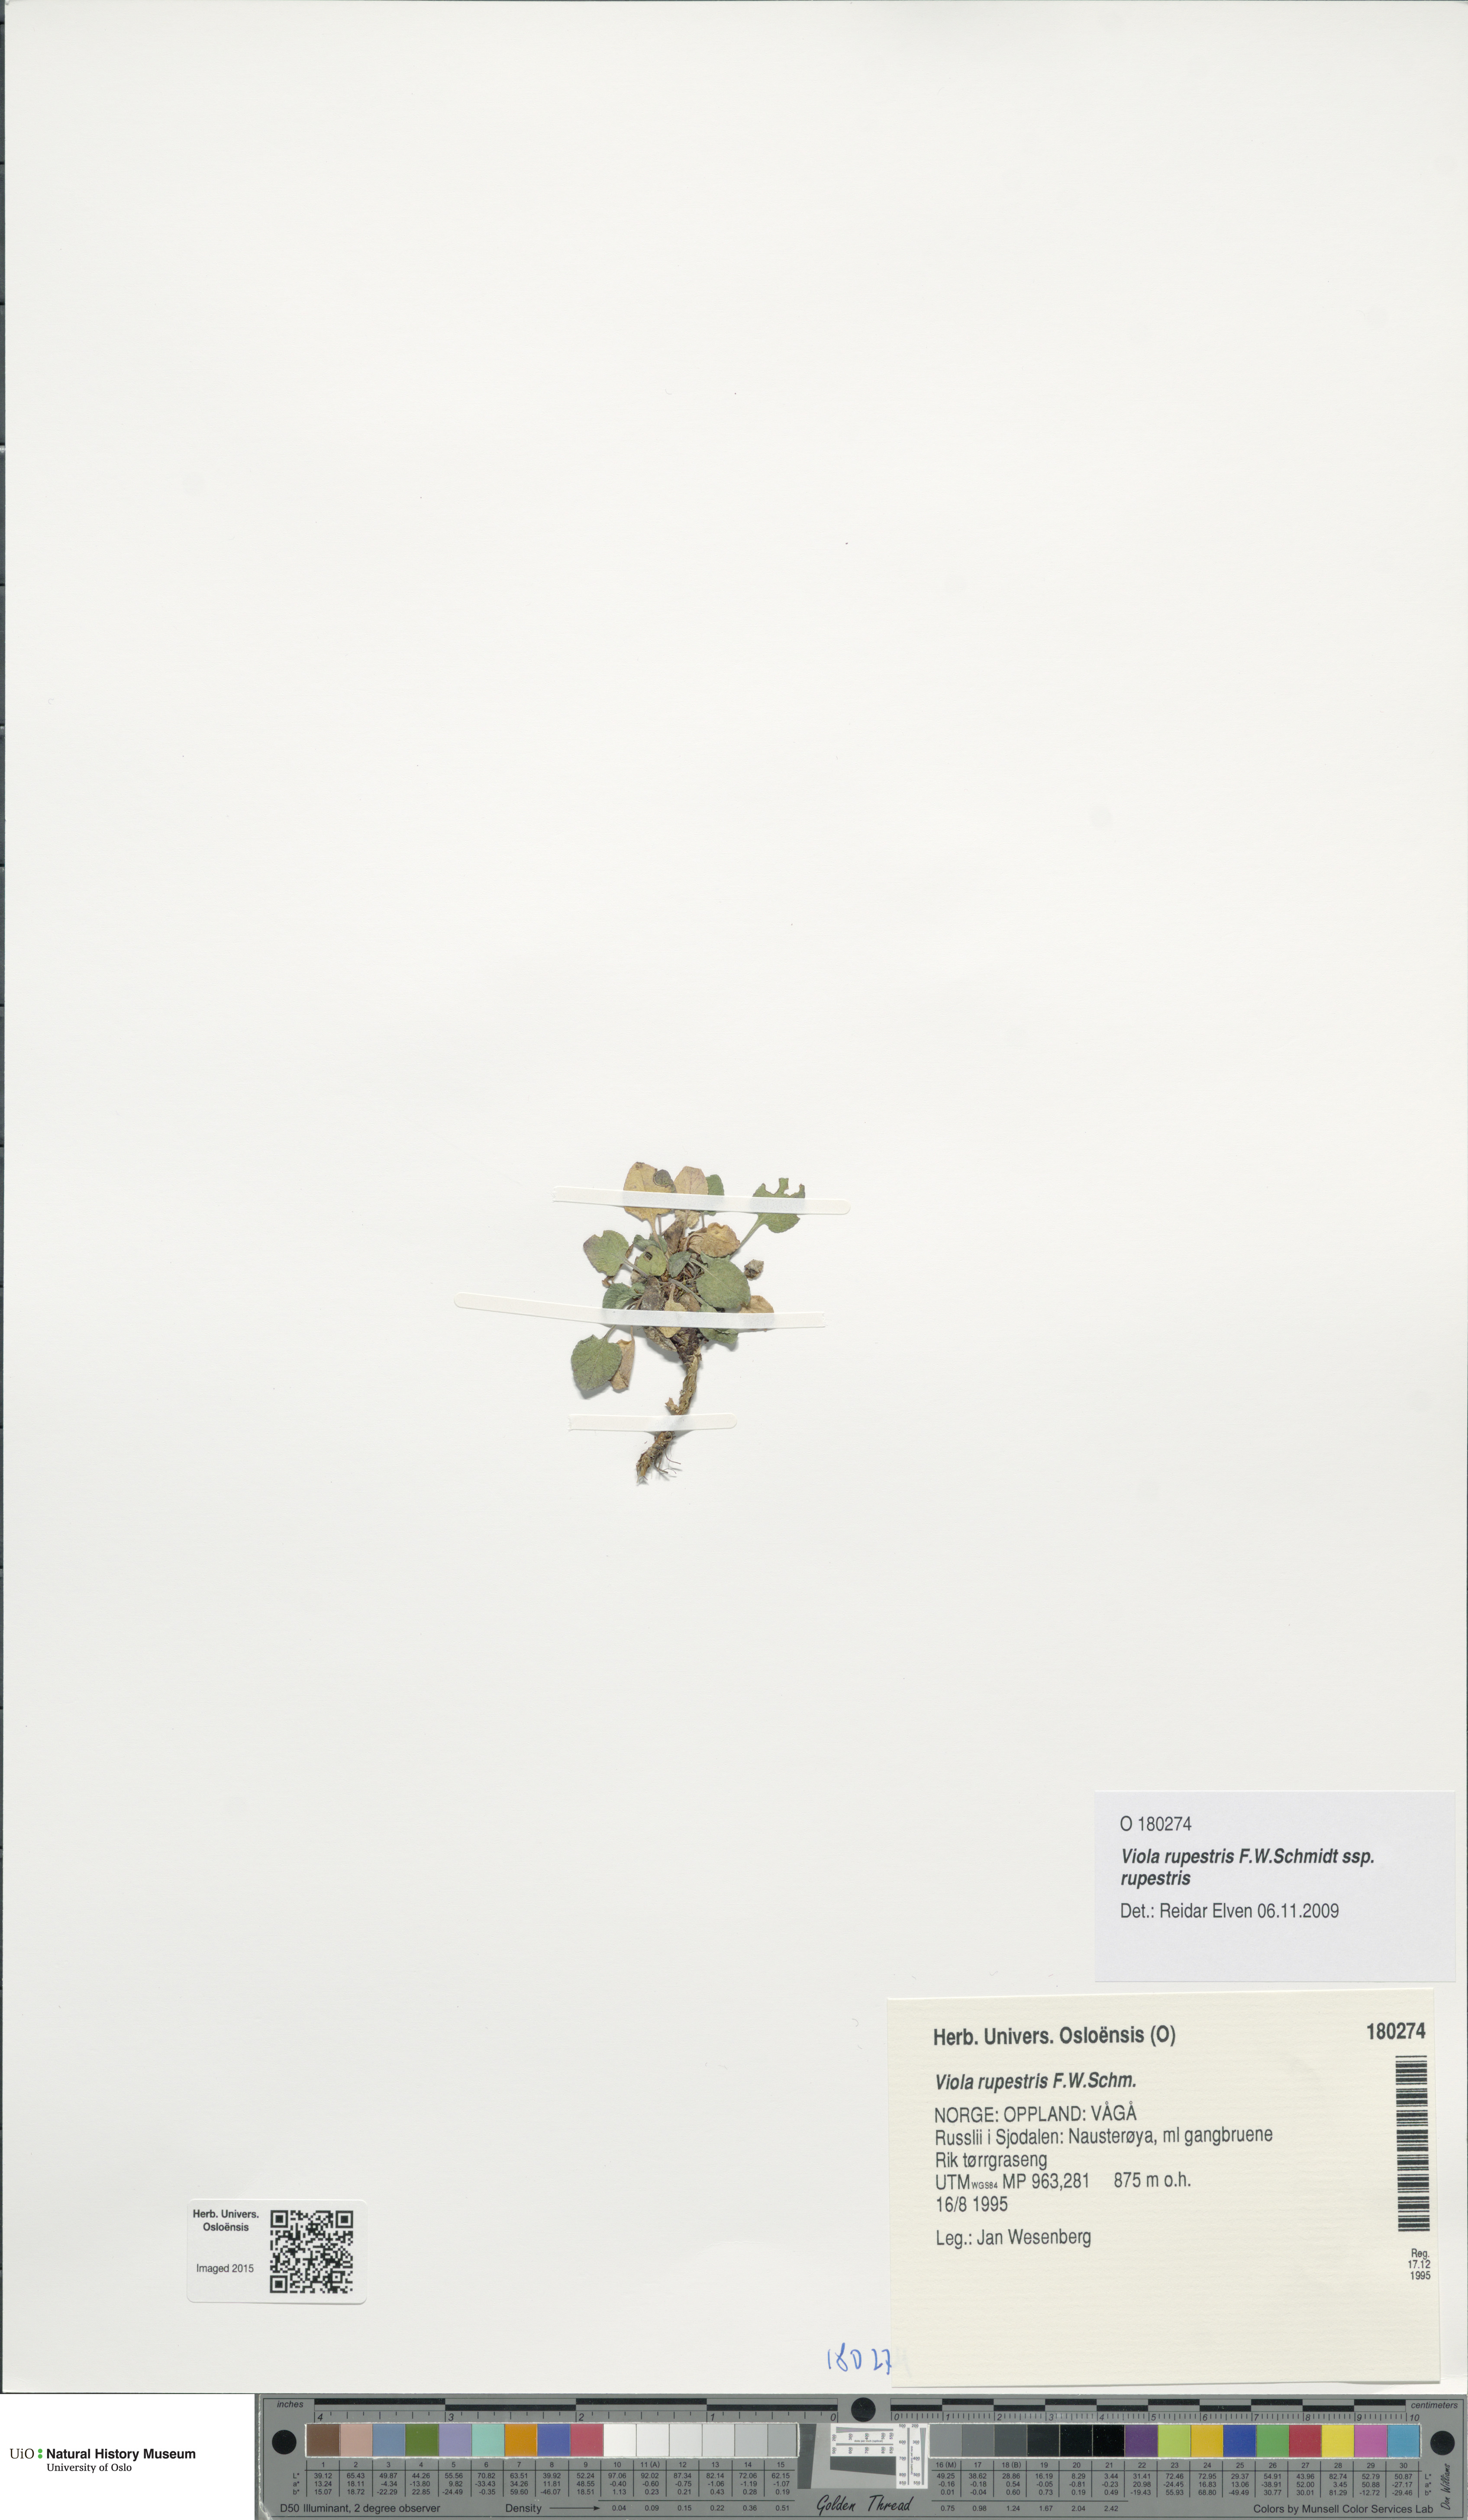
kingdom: Plantae
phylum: Tracheophyta
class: Magnoliopsida
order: Malpighiales
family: Violaceae
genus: Viola
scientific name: Viola rupestris
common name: Teesdale violet
